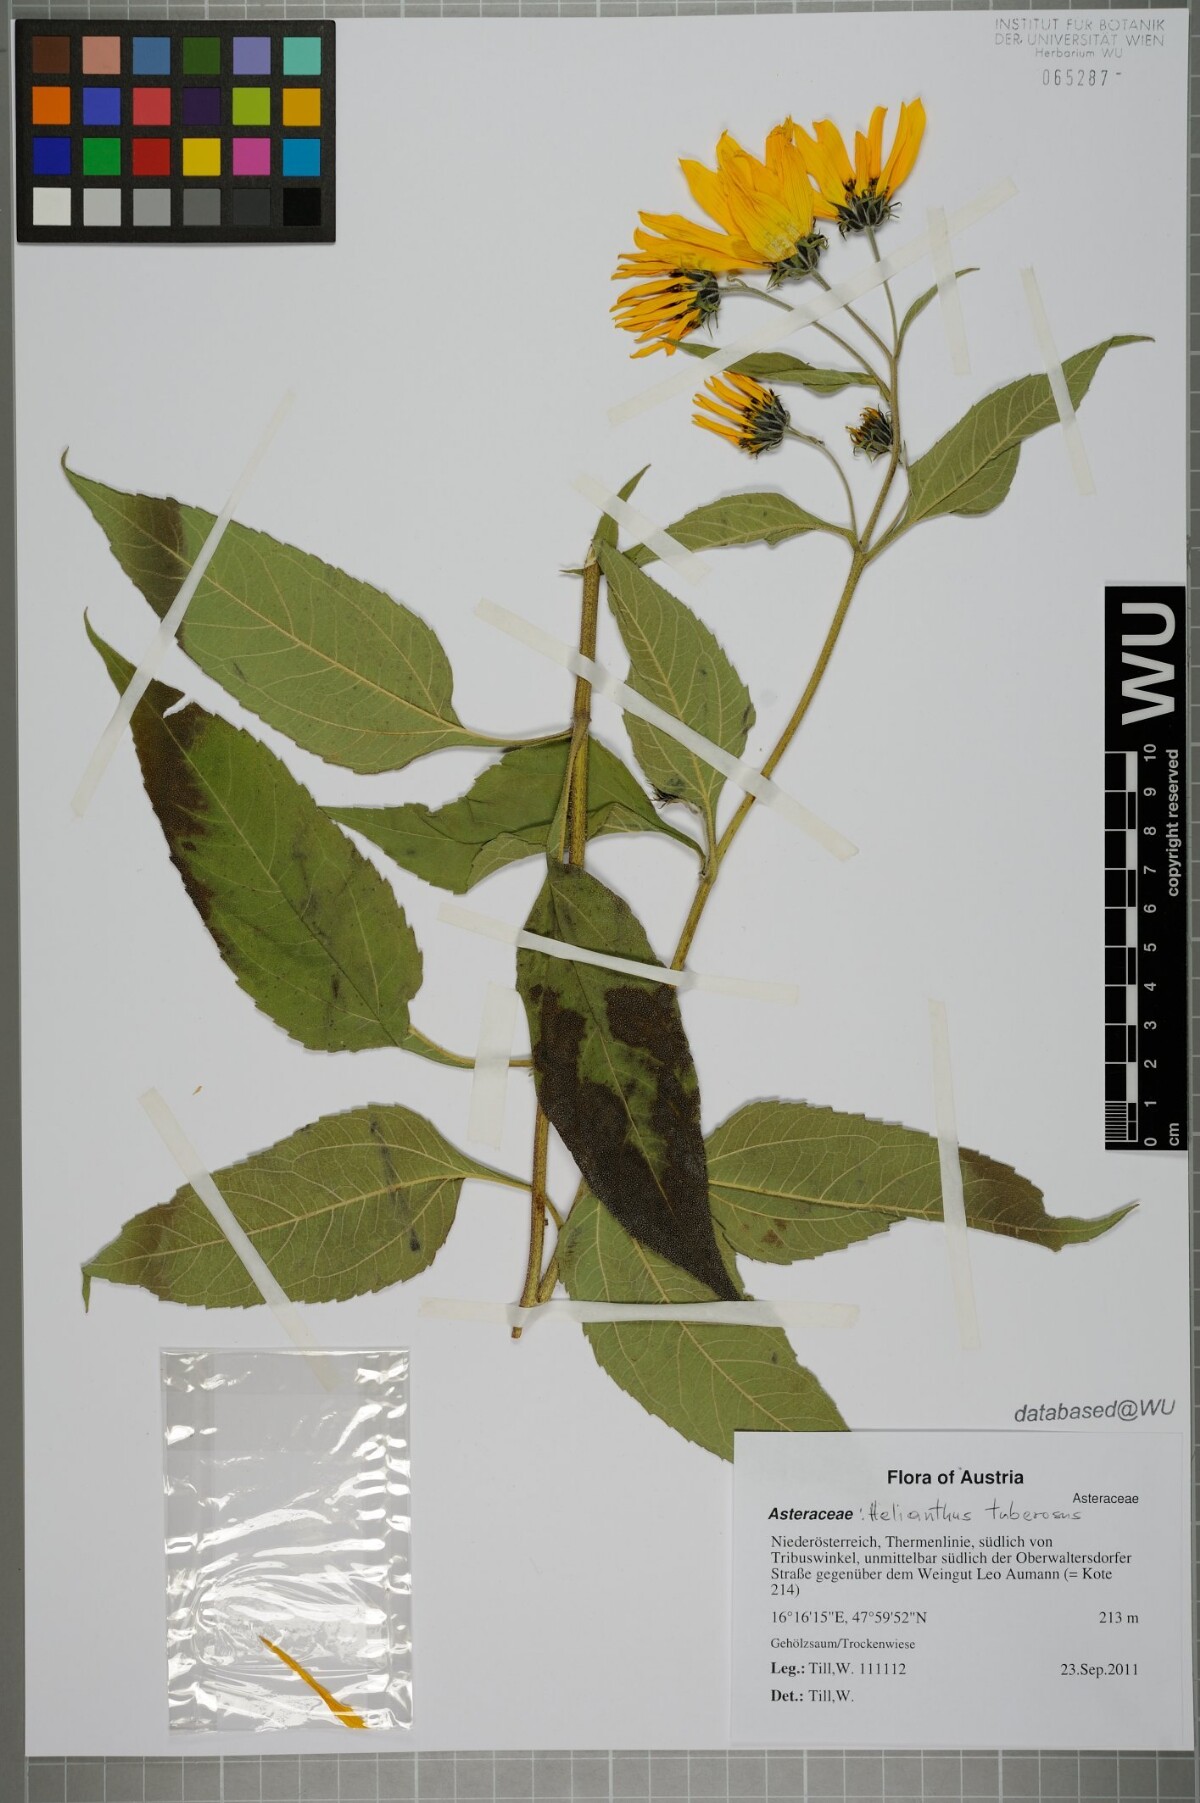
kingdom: Plantae
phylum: Tracheophyta
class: Magnoliopsida
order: Asterales
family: Asteraceae
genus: Helianthus
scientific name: Helianthus tuberosus
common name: Jerusalem artichoke
